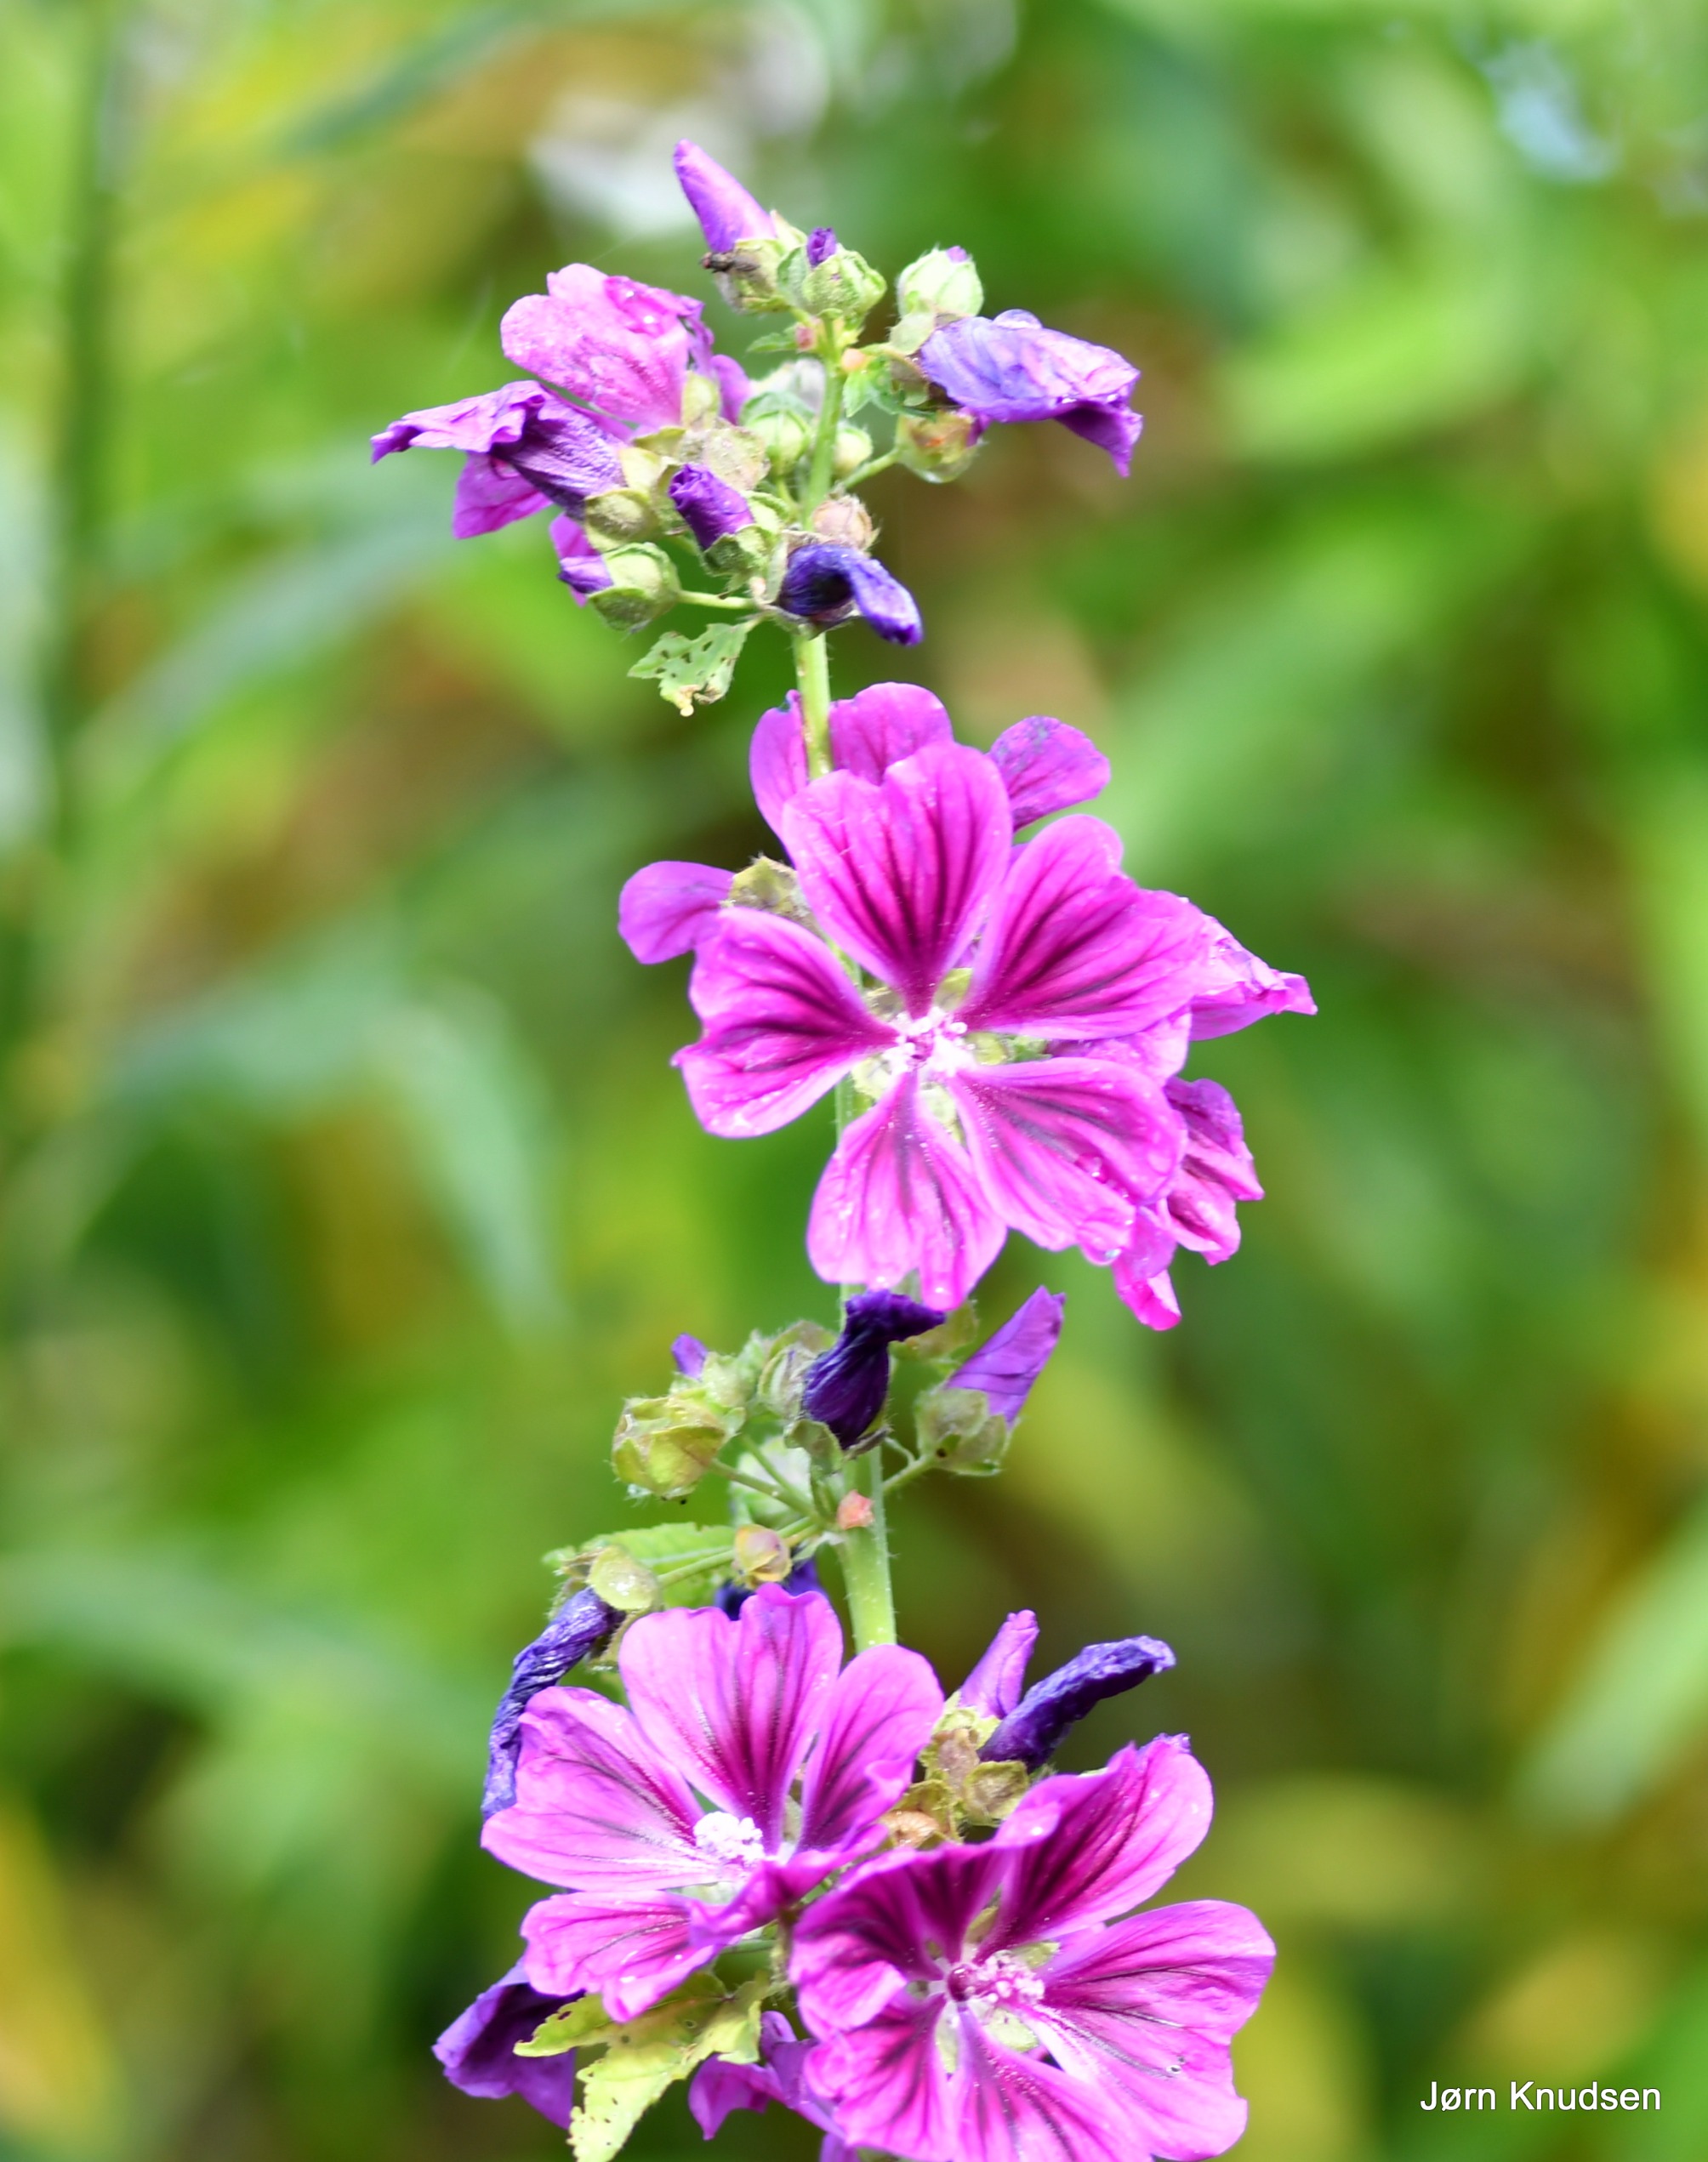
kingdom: Plantae
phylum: Tracheophyta
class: Magnoliopsida
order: Malvales
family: Malvaceae
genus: Malva
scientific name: Malva sylvestris
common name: Almindelig katost
